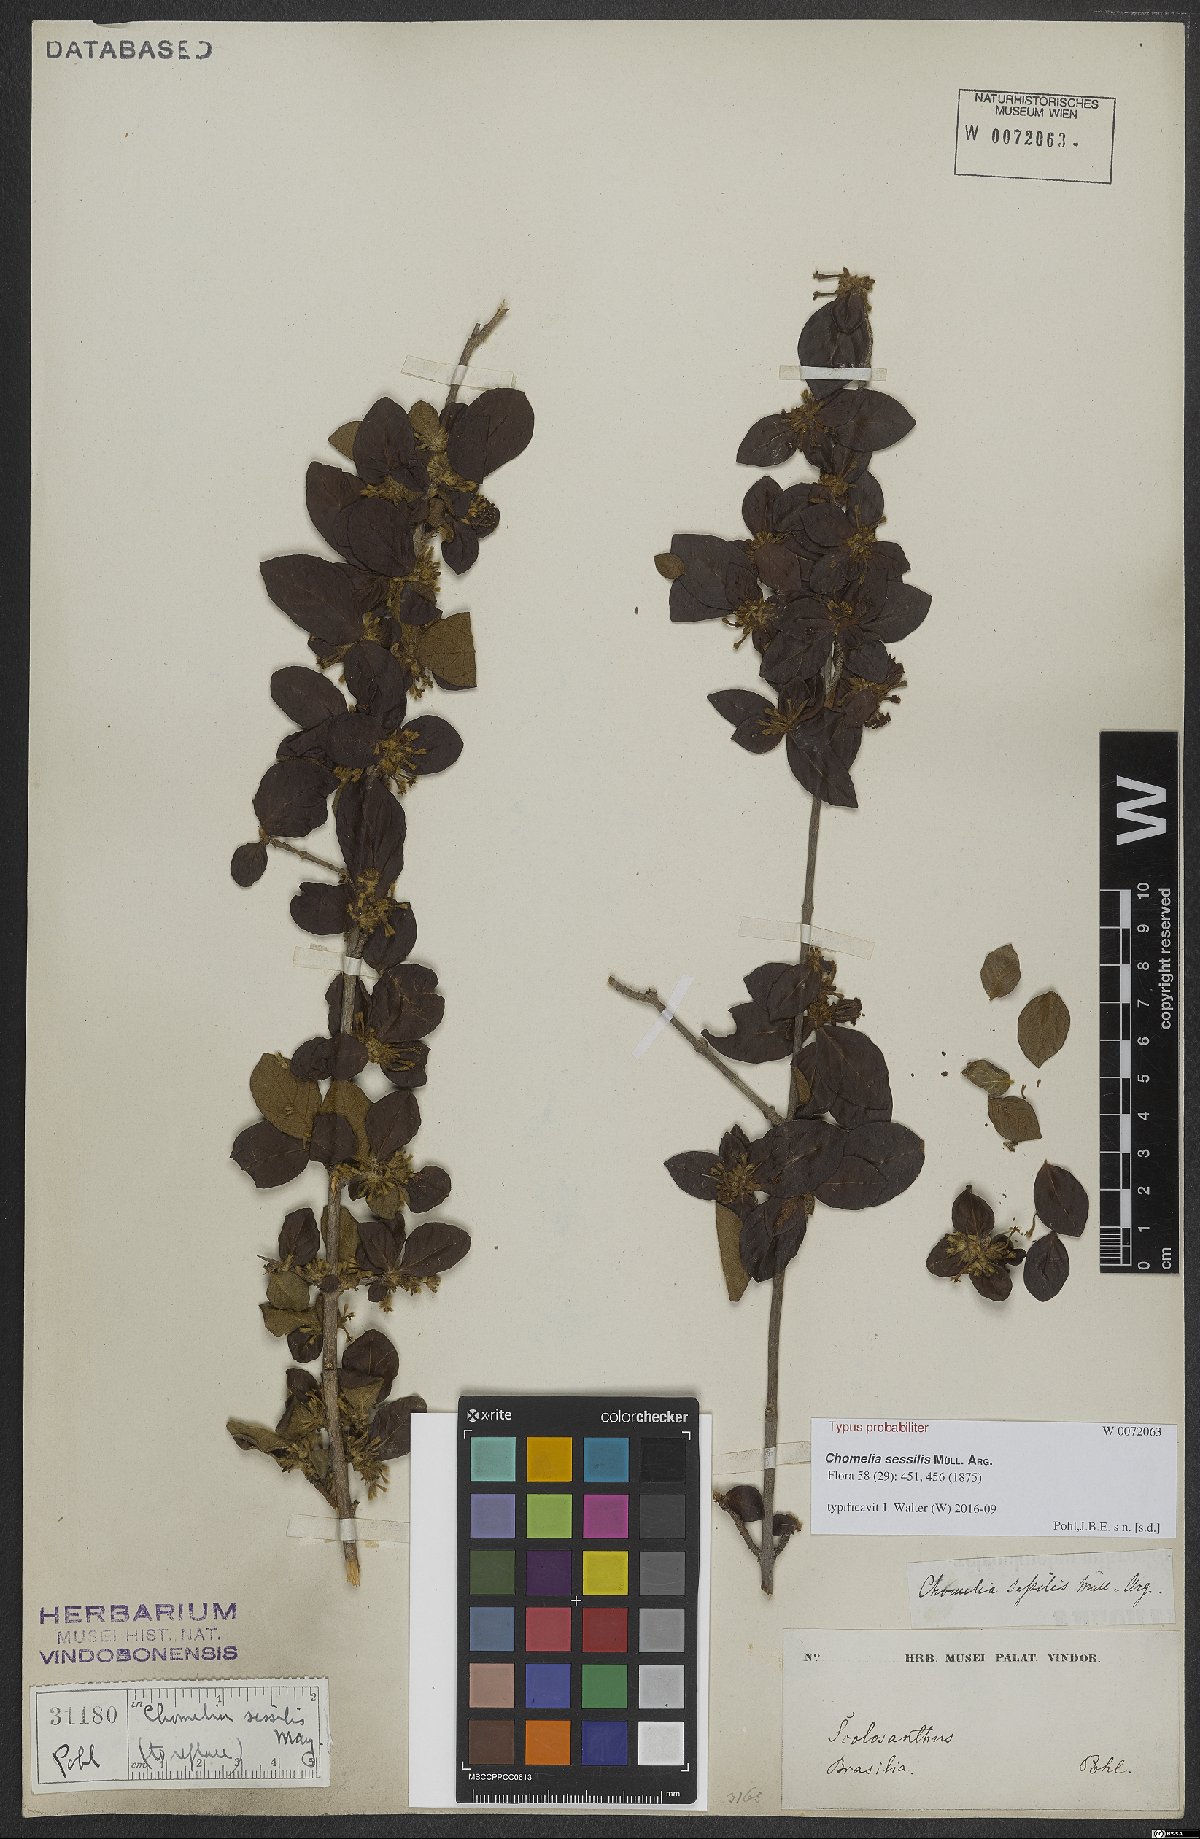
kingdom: Plantae
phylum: Tracheophyta
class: Magnoliopsida
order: Gentianales
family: Rubiaceae
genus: Chomelia
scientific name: Chomelia sessilis
